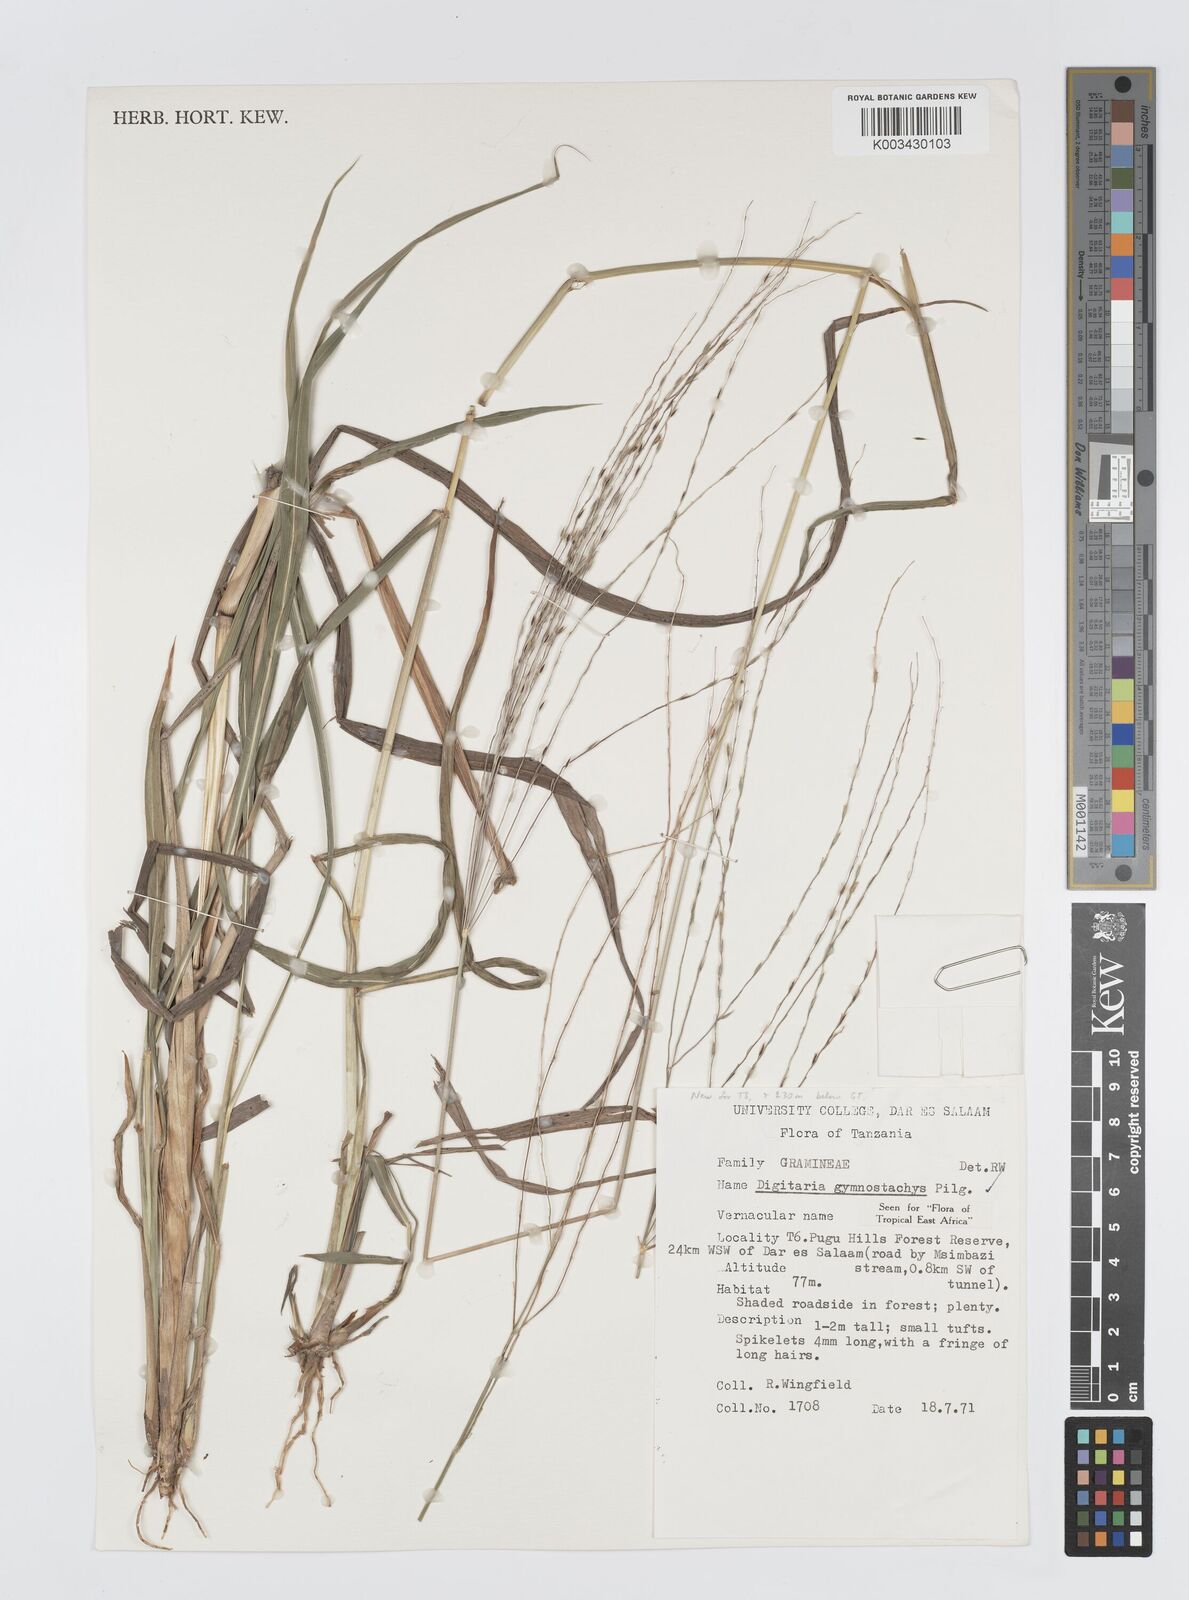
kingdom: Plantae
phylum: Tracheophyta
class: Liliopsida
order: Poales
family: Poaceae
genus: Digitaria
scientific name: Digitaria gymnostachys
